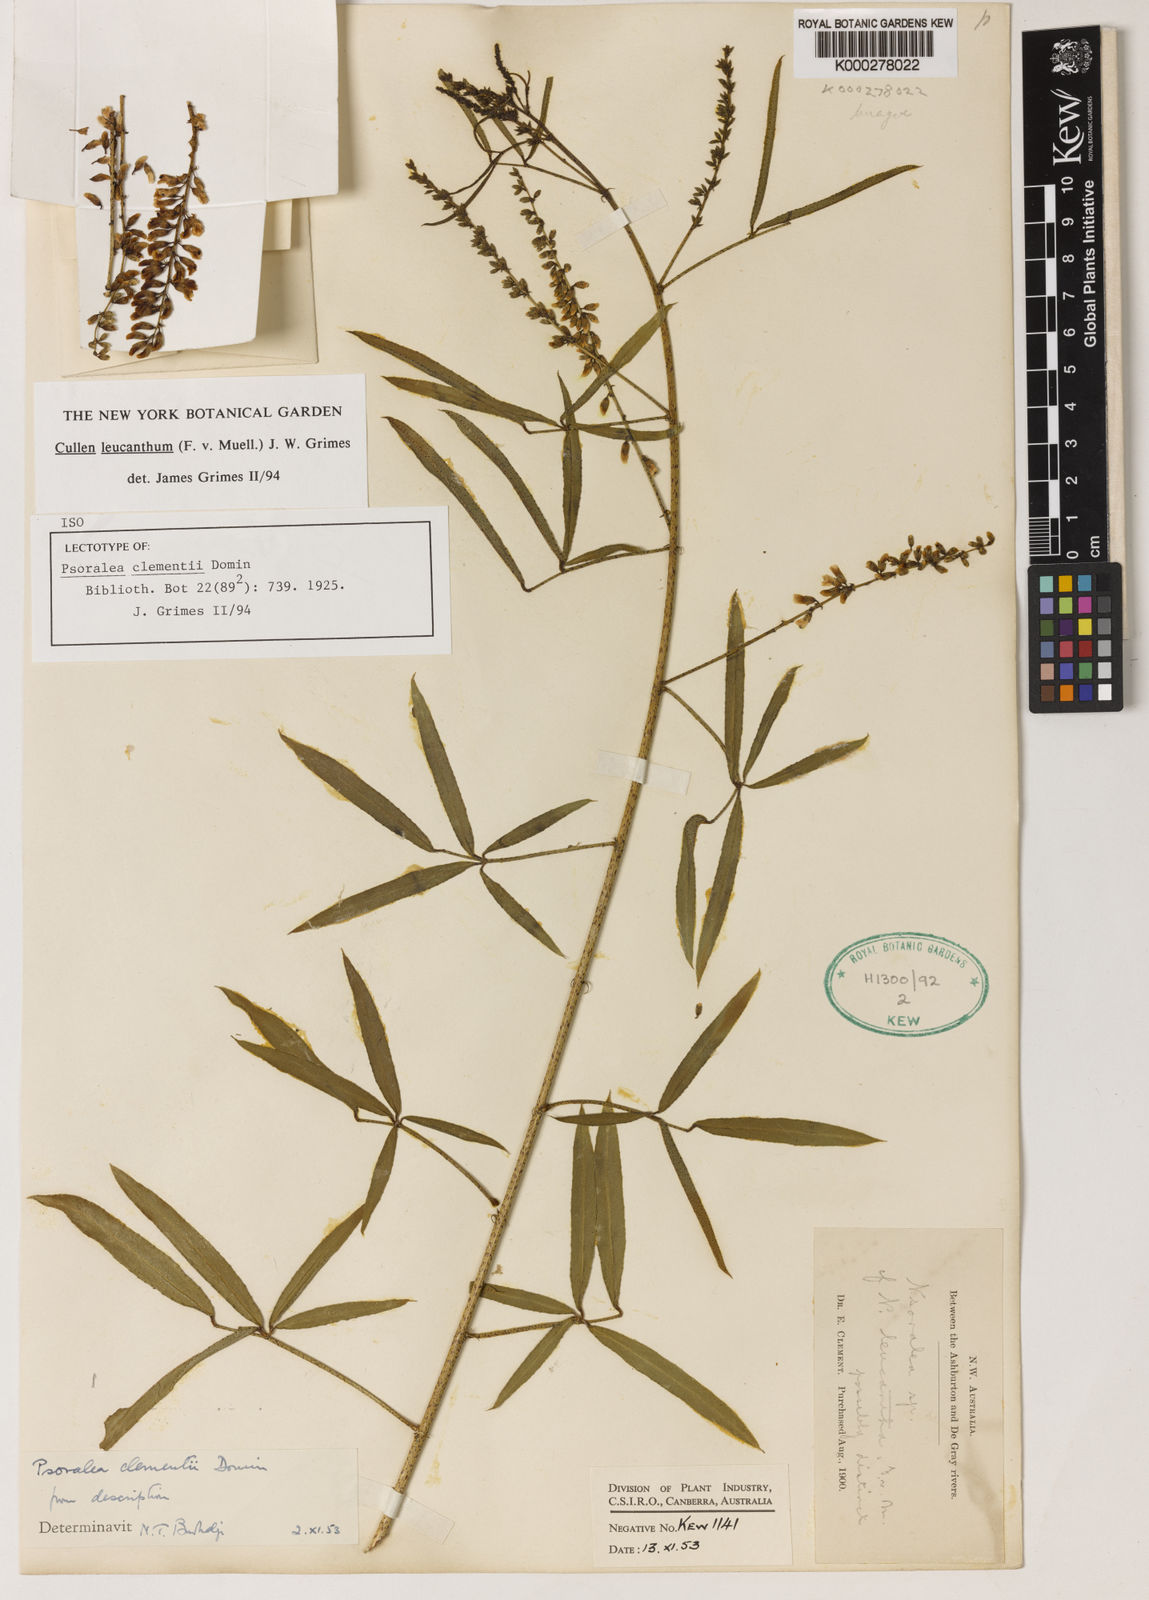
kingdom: Plantae
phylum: Tracheophyta
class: Magnoliopsida
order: Fabales
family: Fabaceae
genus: Cullen
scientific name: Cullen leucanthum
